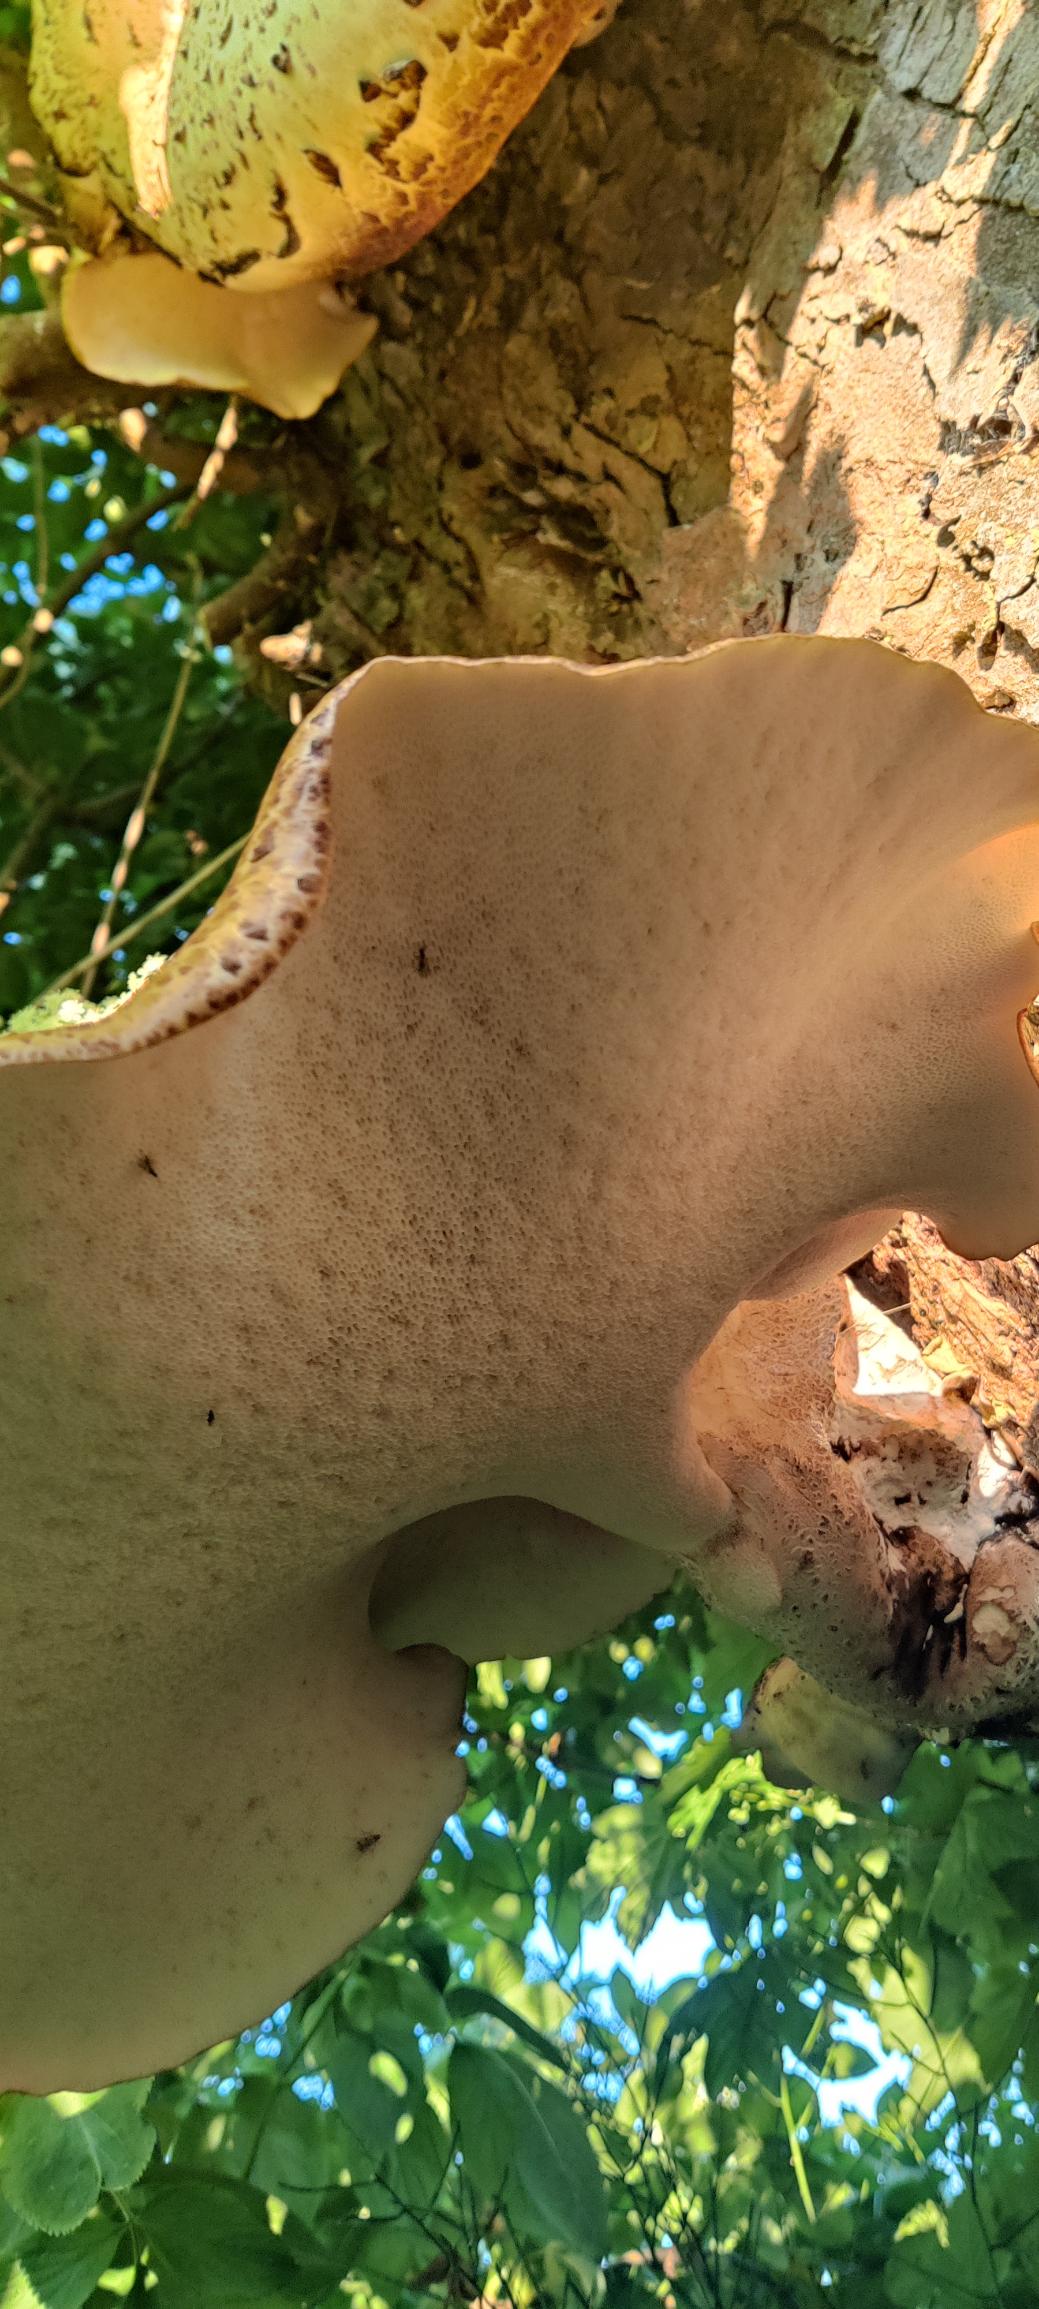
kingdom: Fungi
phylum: Basidiomycota
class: Agaricomycetes
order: Polyporales
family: Polyporaceae
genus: Cerioporus
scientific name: Cerioporus squamosus
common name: Skællet stilkporesvamp
